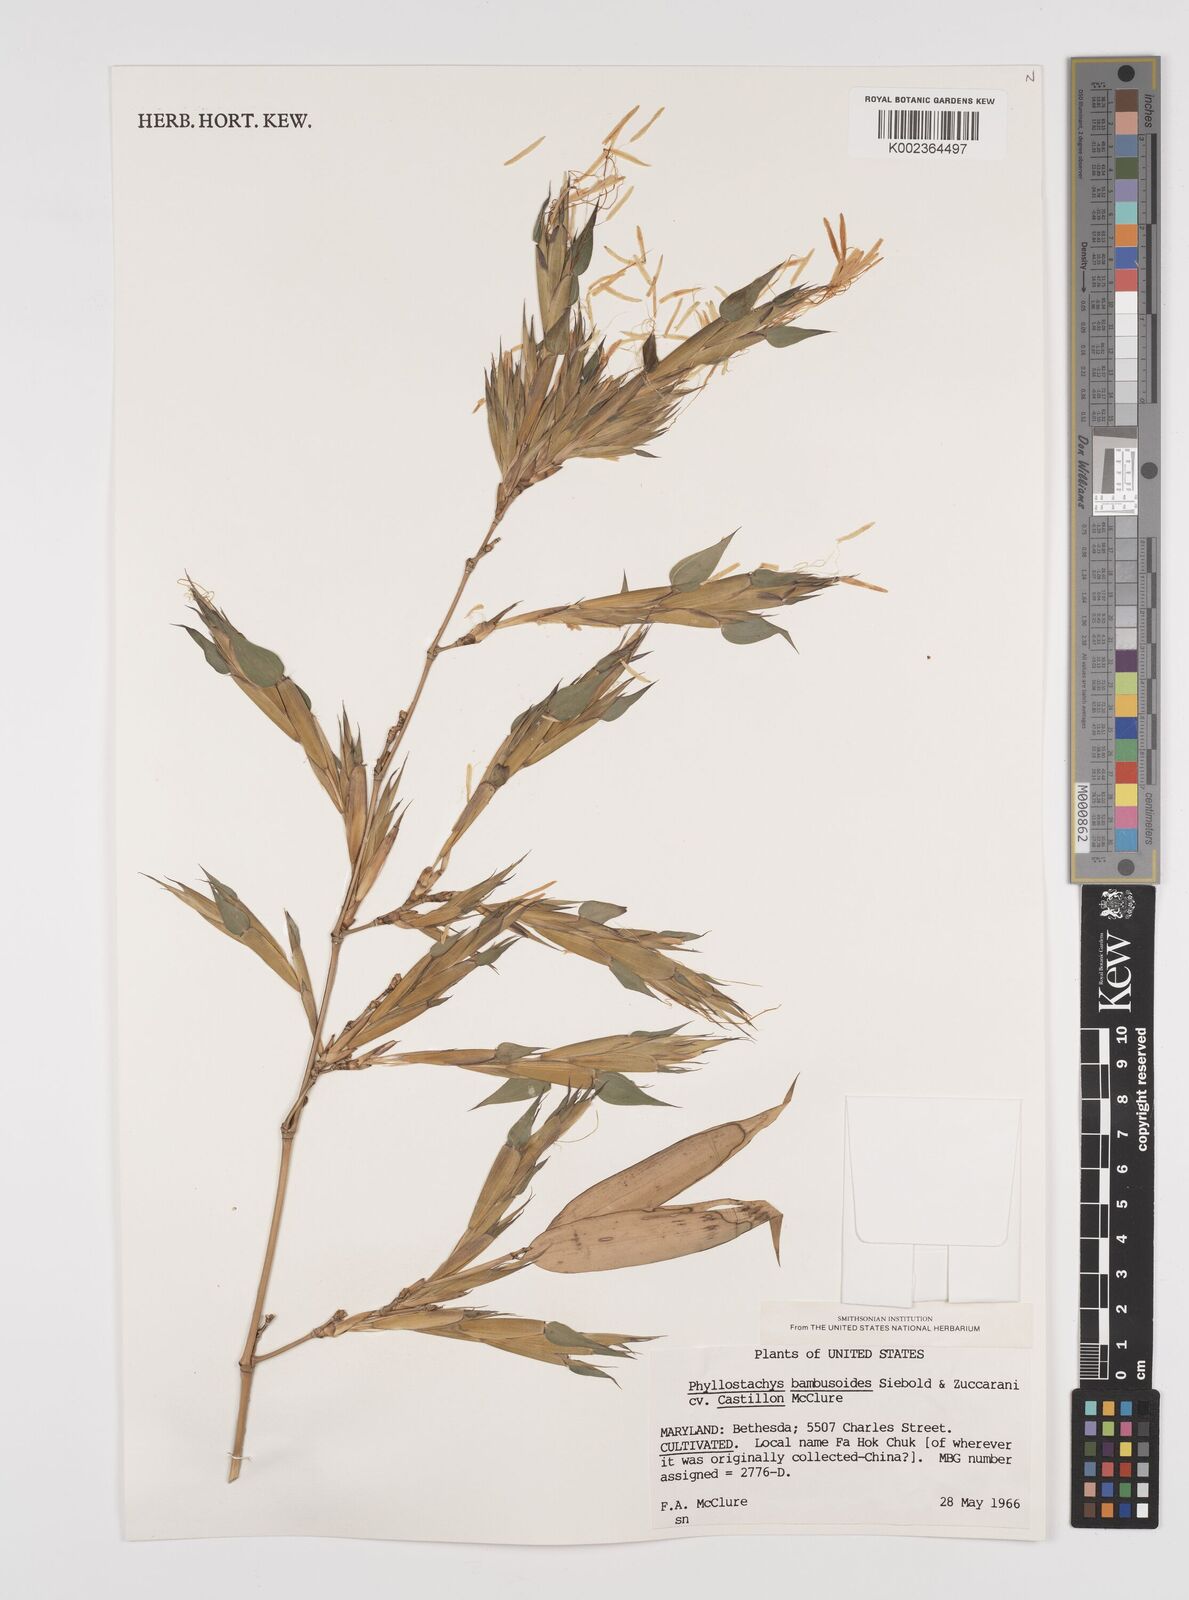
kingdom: Plantae
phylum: Tracheophyta
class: Liliopsida
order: Poales
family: Poaceae
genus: Phyllostachys
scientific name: Phyllostachys reticulata
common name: Bamboo
